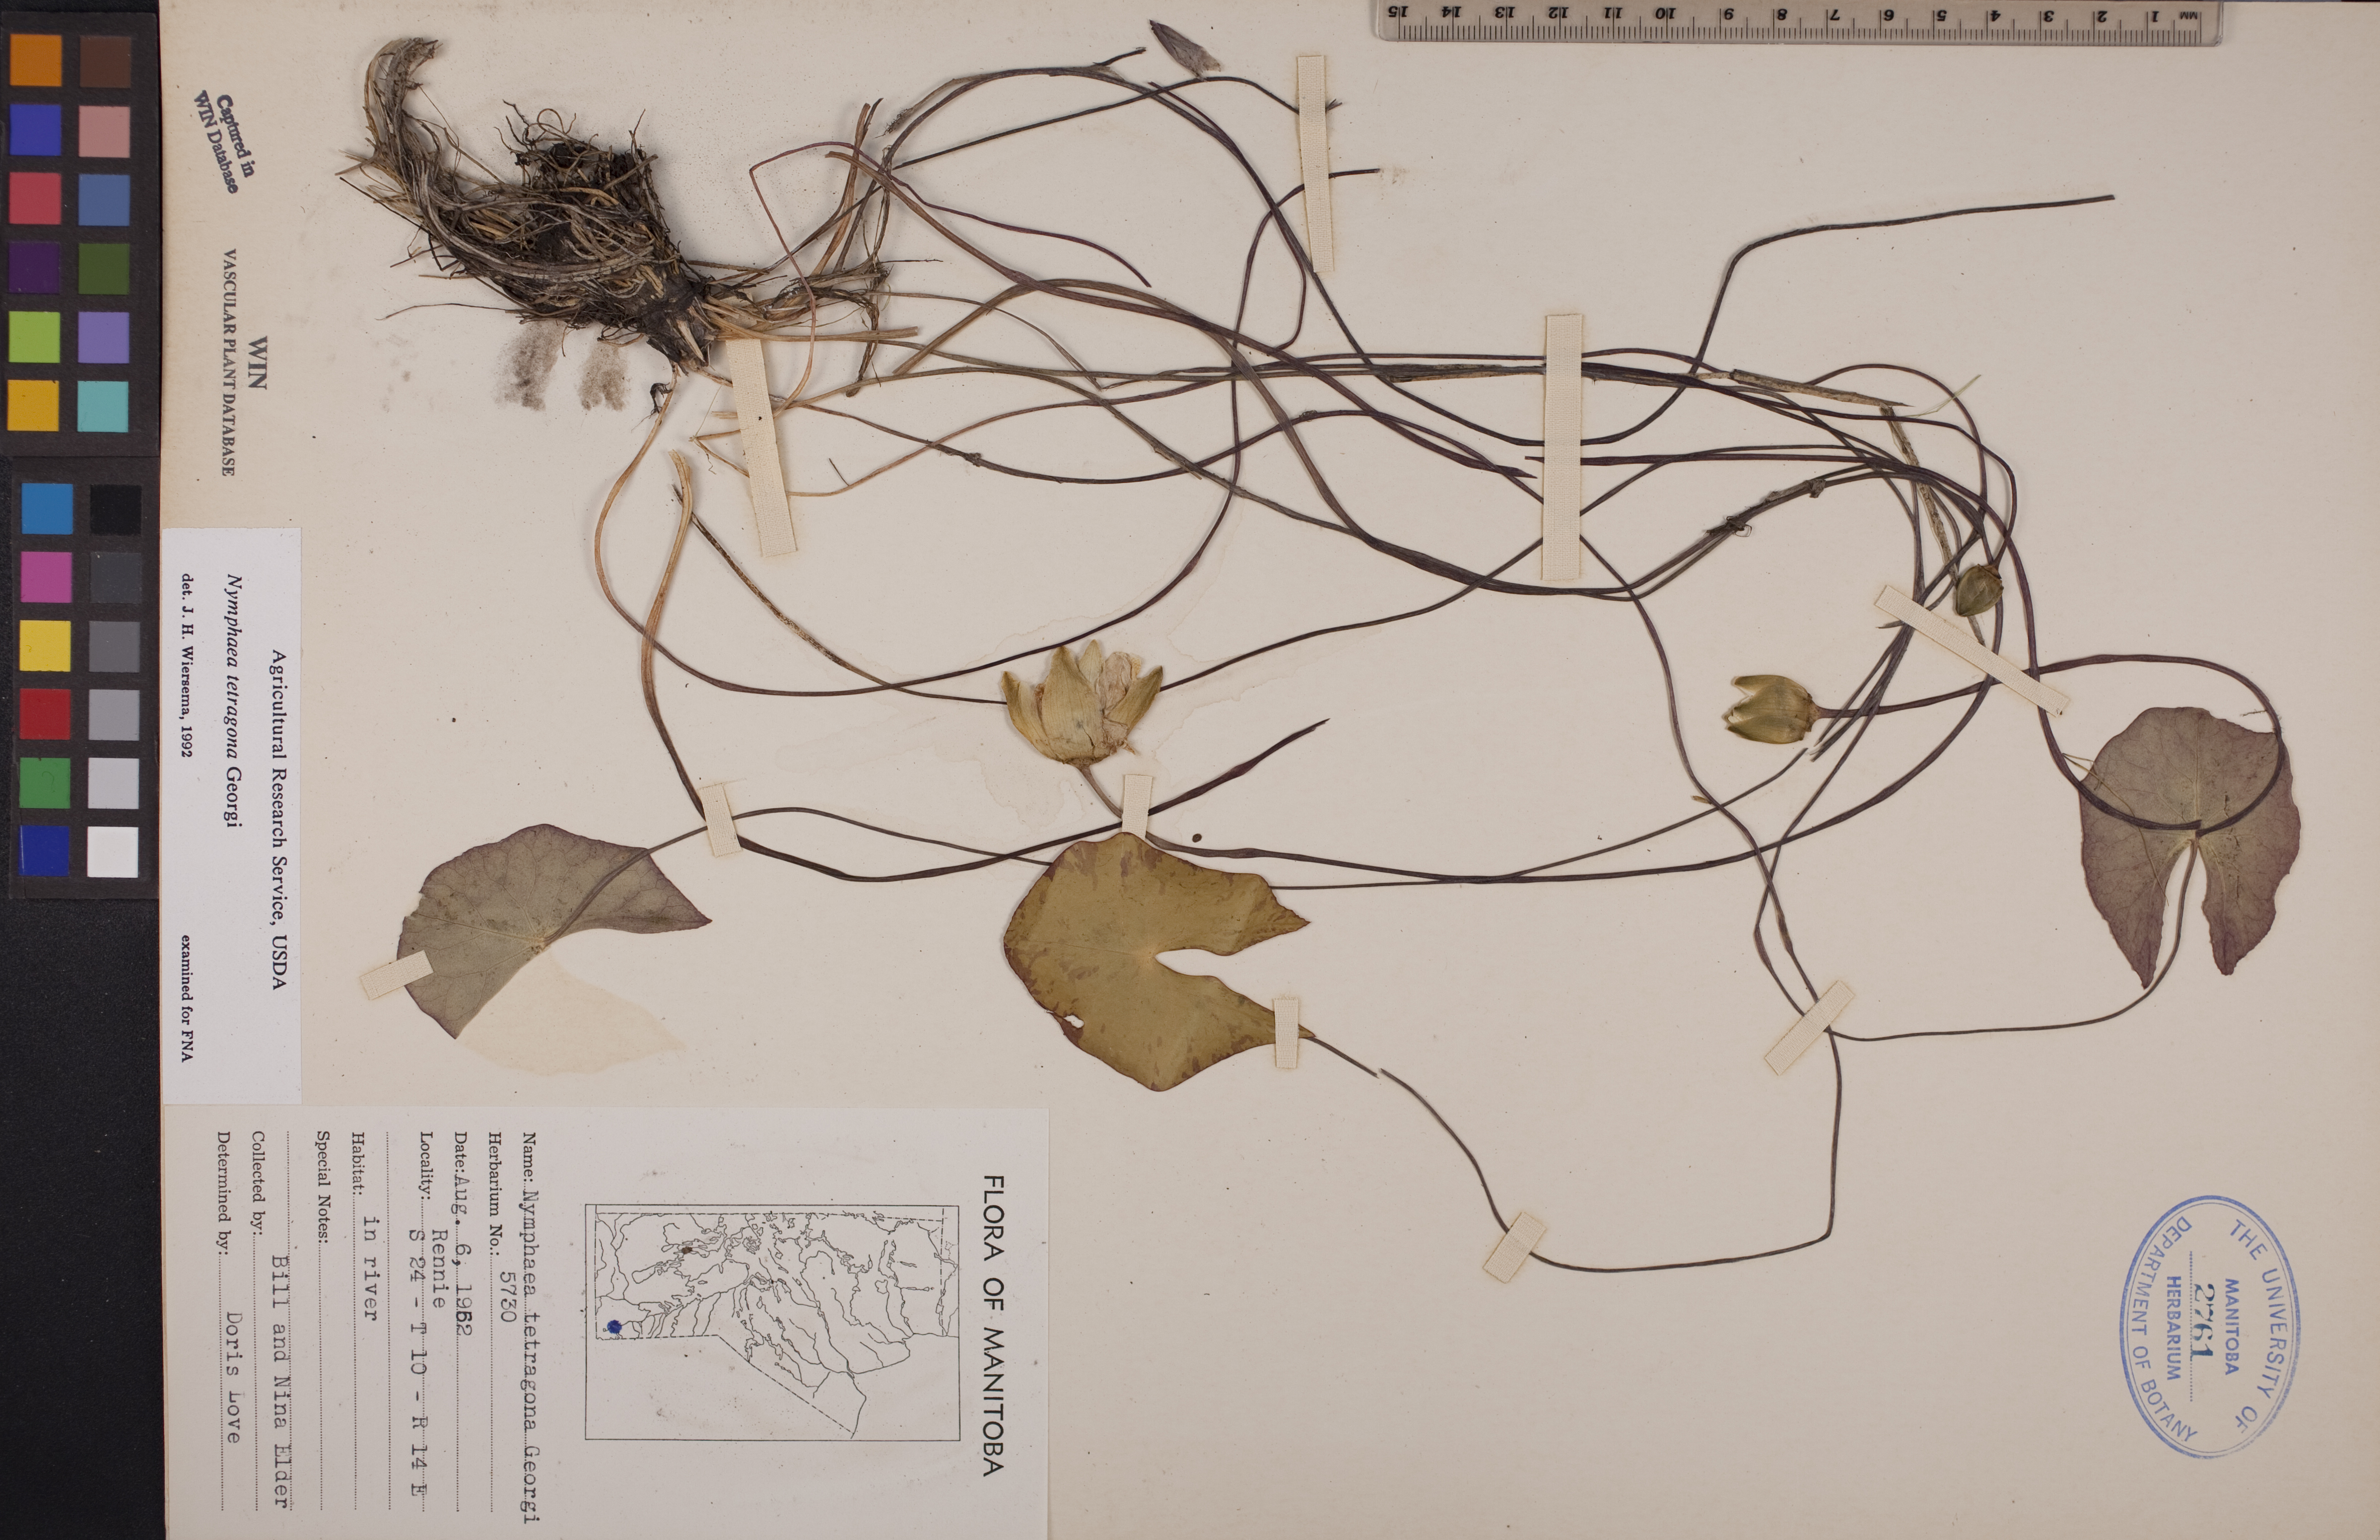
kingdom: Plantae
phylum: Tracheophyta
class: Magnoliopsida
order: Nymphaeales
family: Nymphaeaceae
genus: Nymphaea
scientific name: Nymphaea tetragona
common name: Pygmy water-lily
